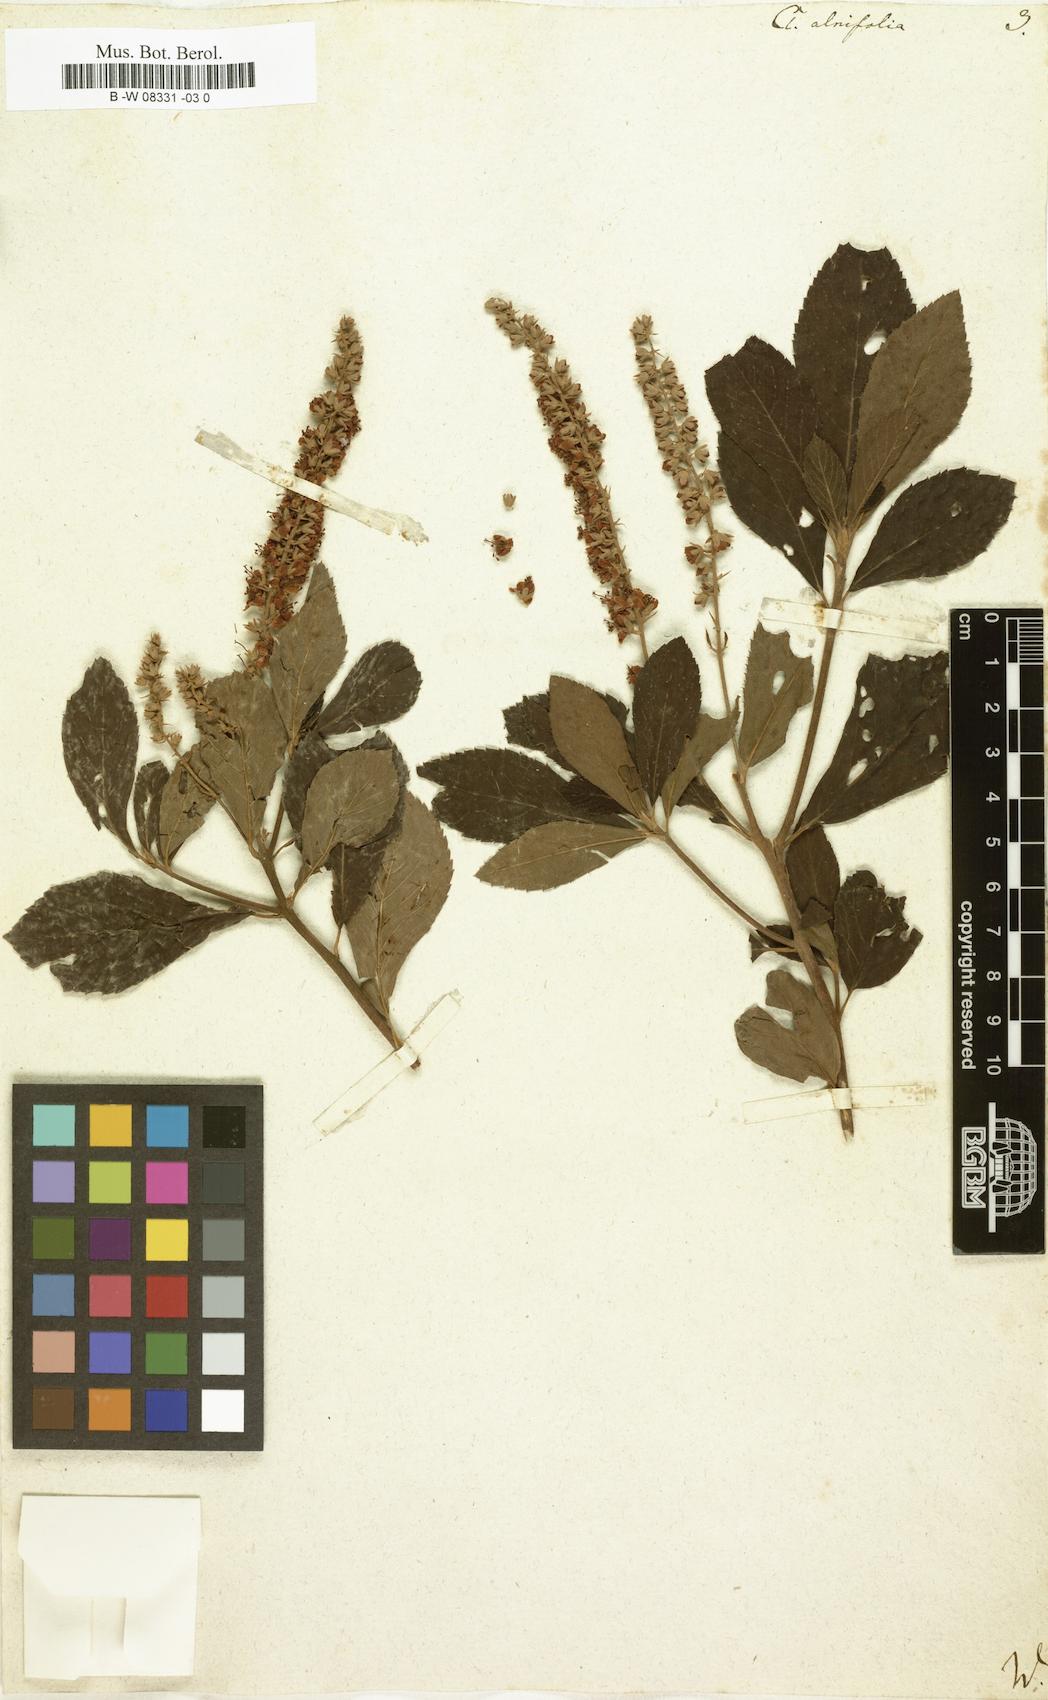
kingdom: Plantae
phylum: Tracheophyta
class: Magnoliopsida
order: Ericales
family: Clethraceae
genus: Clethra
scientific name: Clethra alnifolia
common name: Sweet pepperbush
